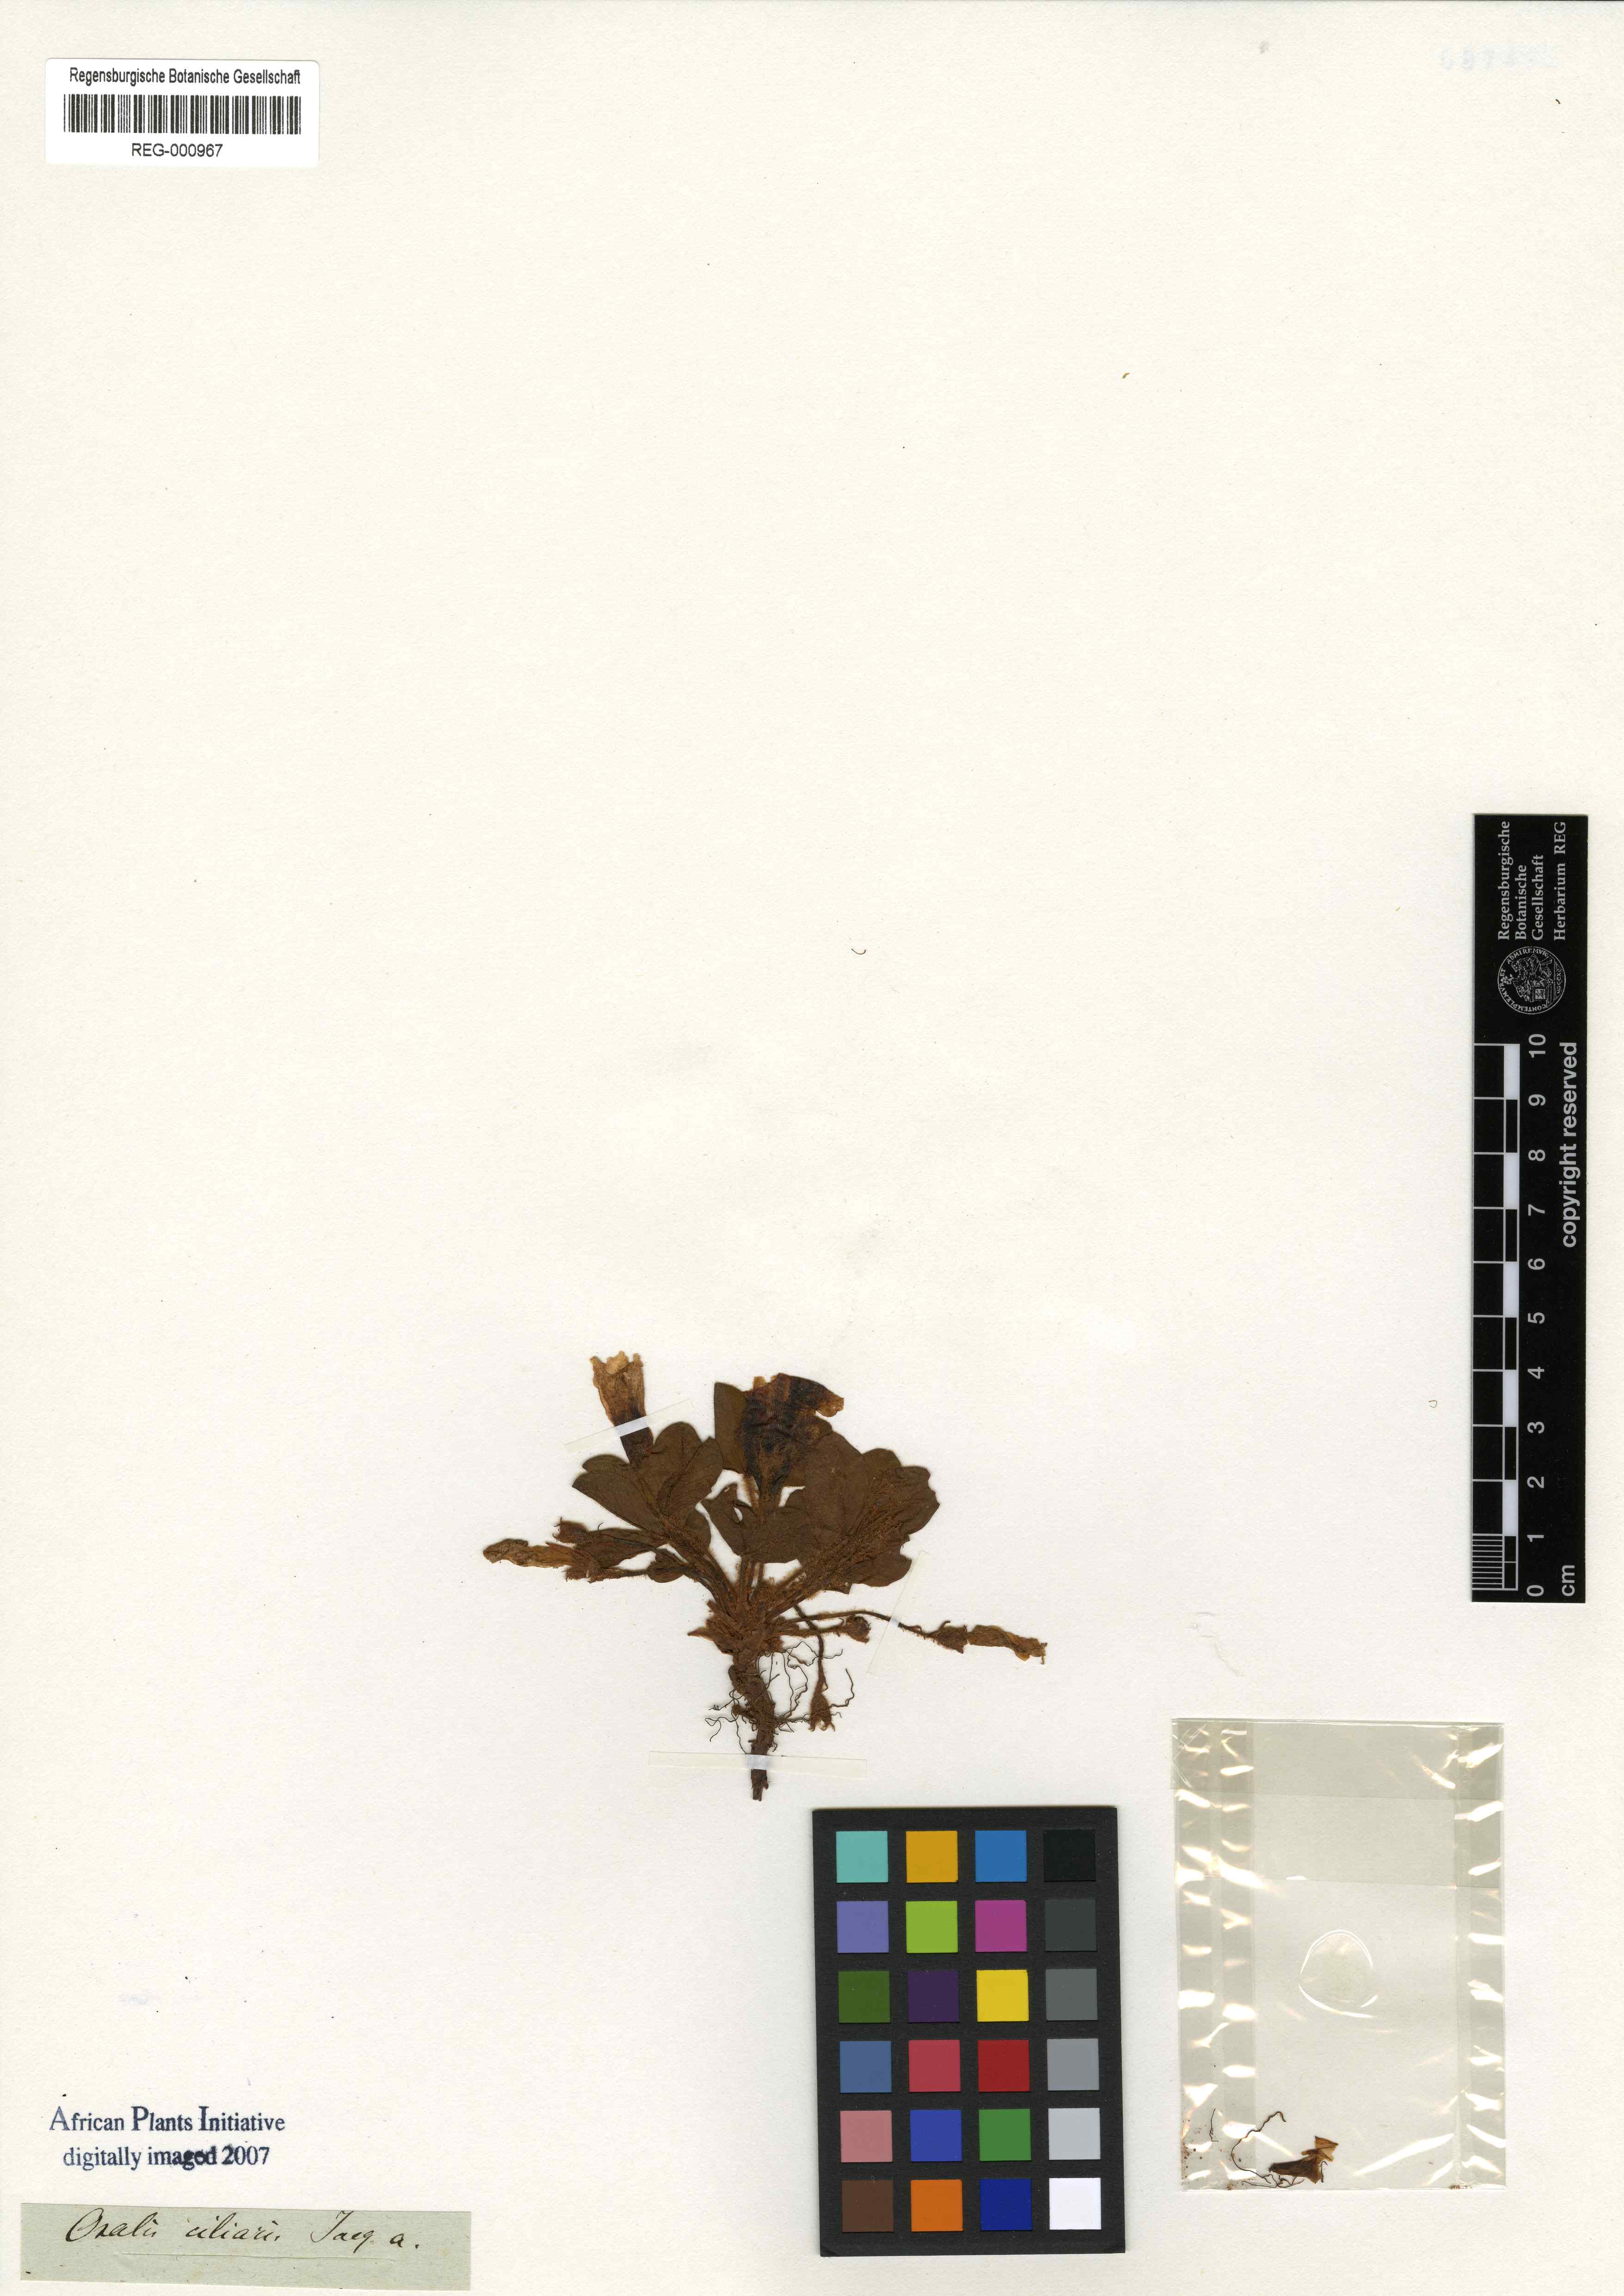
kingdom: Plantae
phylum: Tracheophyta
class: Magnoliopsida
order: Oxalidales
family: Oxalidaceae
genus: Oxalis
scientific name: Oxalis ciliaris
